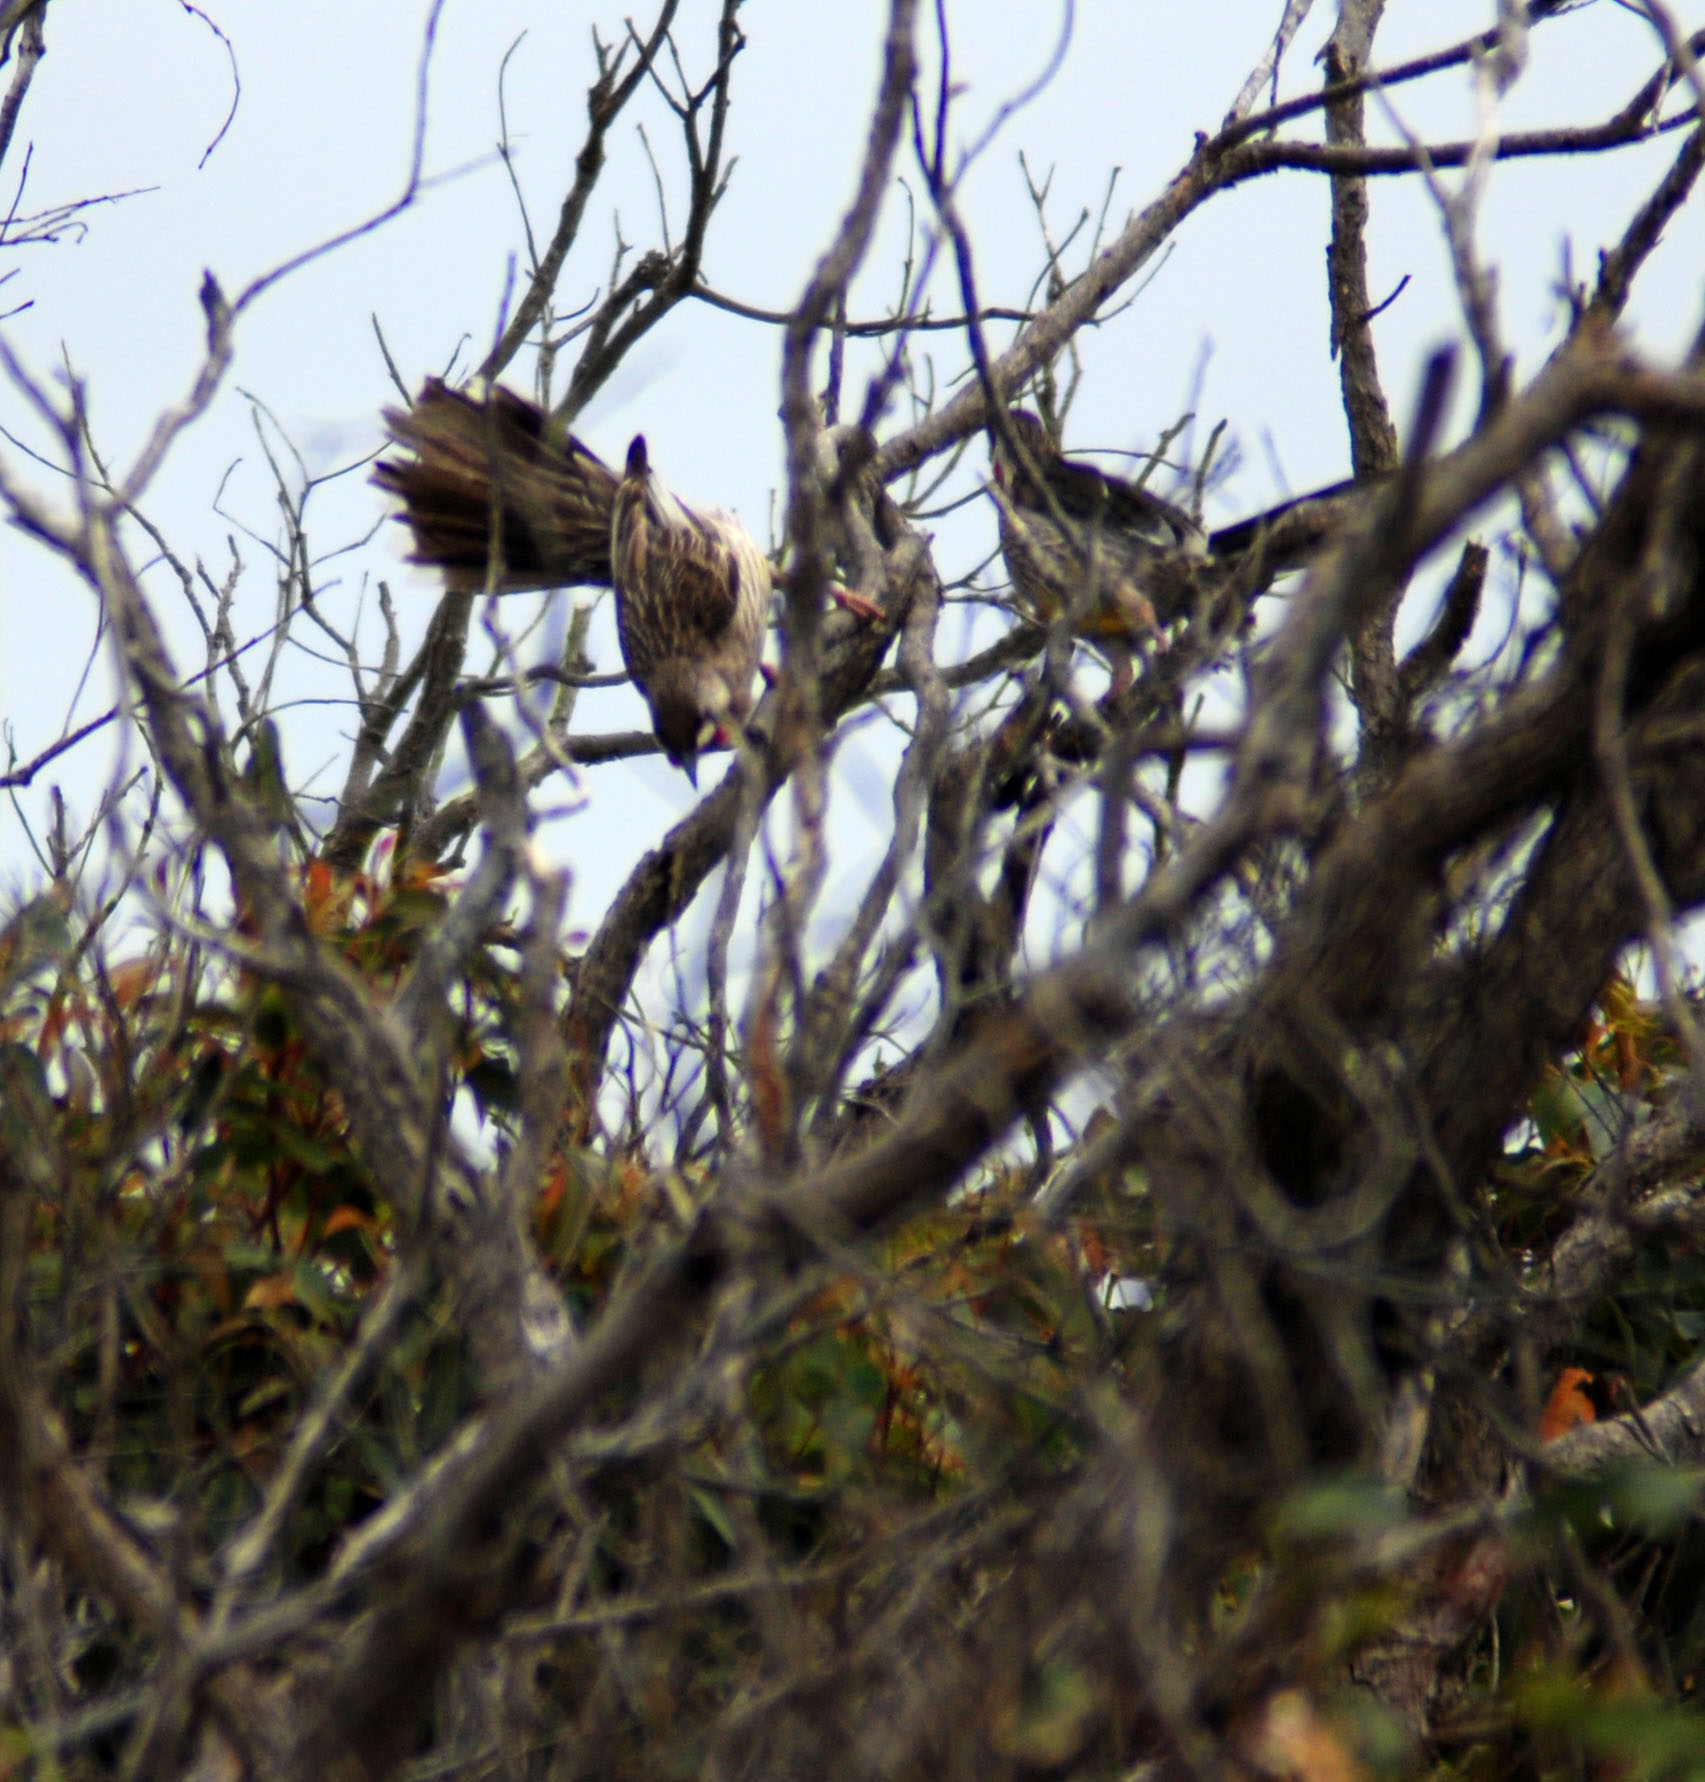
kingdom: Animalia
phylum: Chordata
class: Aves
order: Passeriformes
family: Meliphagidae
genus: Anthochaera
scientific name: Anthochaera carunculata
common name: Red wattlebird
